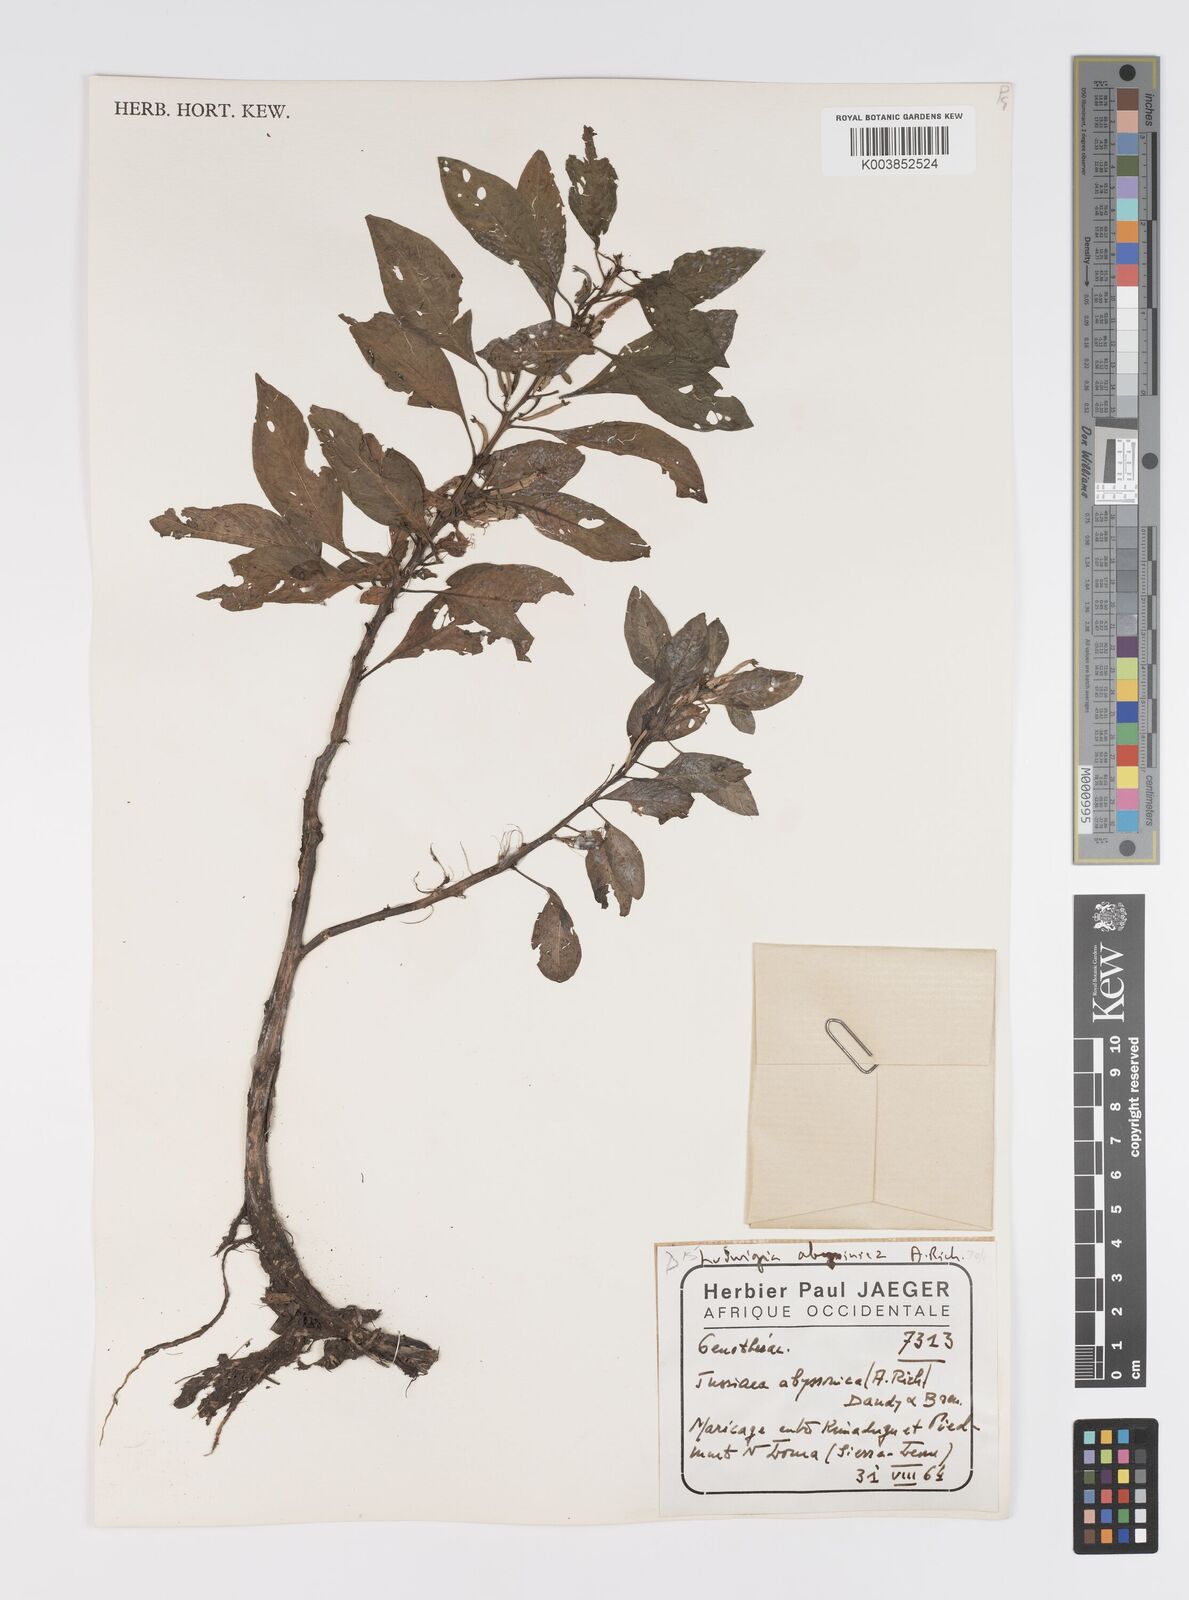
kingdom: Plantae
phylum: Tracheophyta
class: Magnoliopsida
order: Myrtales
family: Onagraceae
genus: Ludwigia
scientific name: Ludwigia abyssinica
